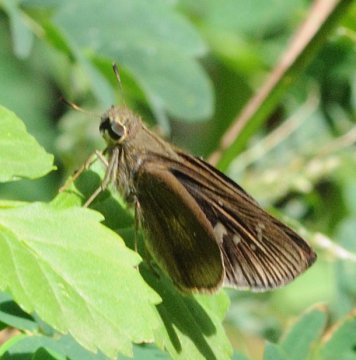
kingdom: Animalia
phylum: Arthropoda
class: Insecta
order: Lepidoptera
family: Hesperiidae
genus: Borbo
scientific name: Borbo
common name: Swifts
